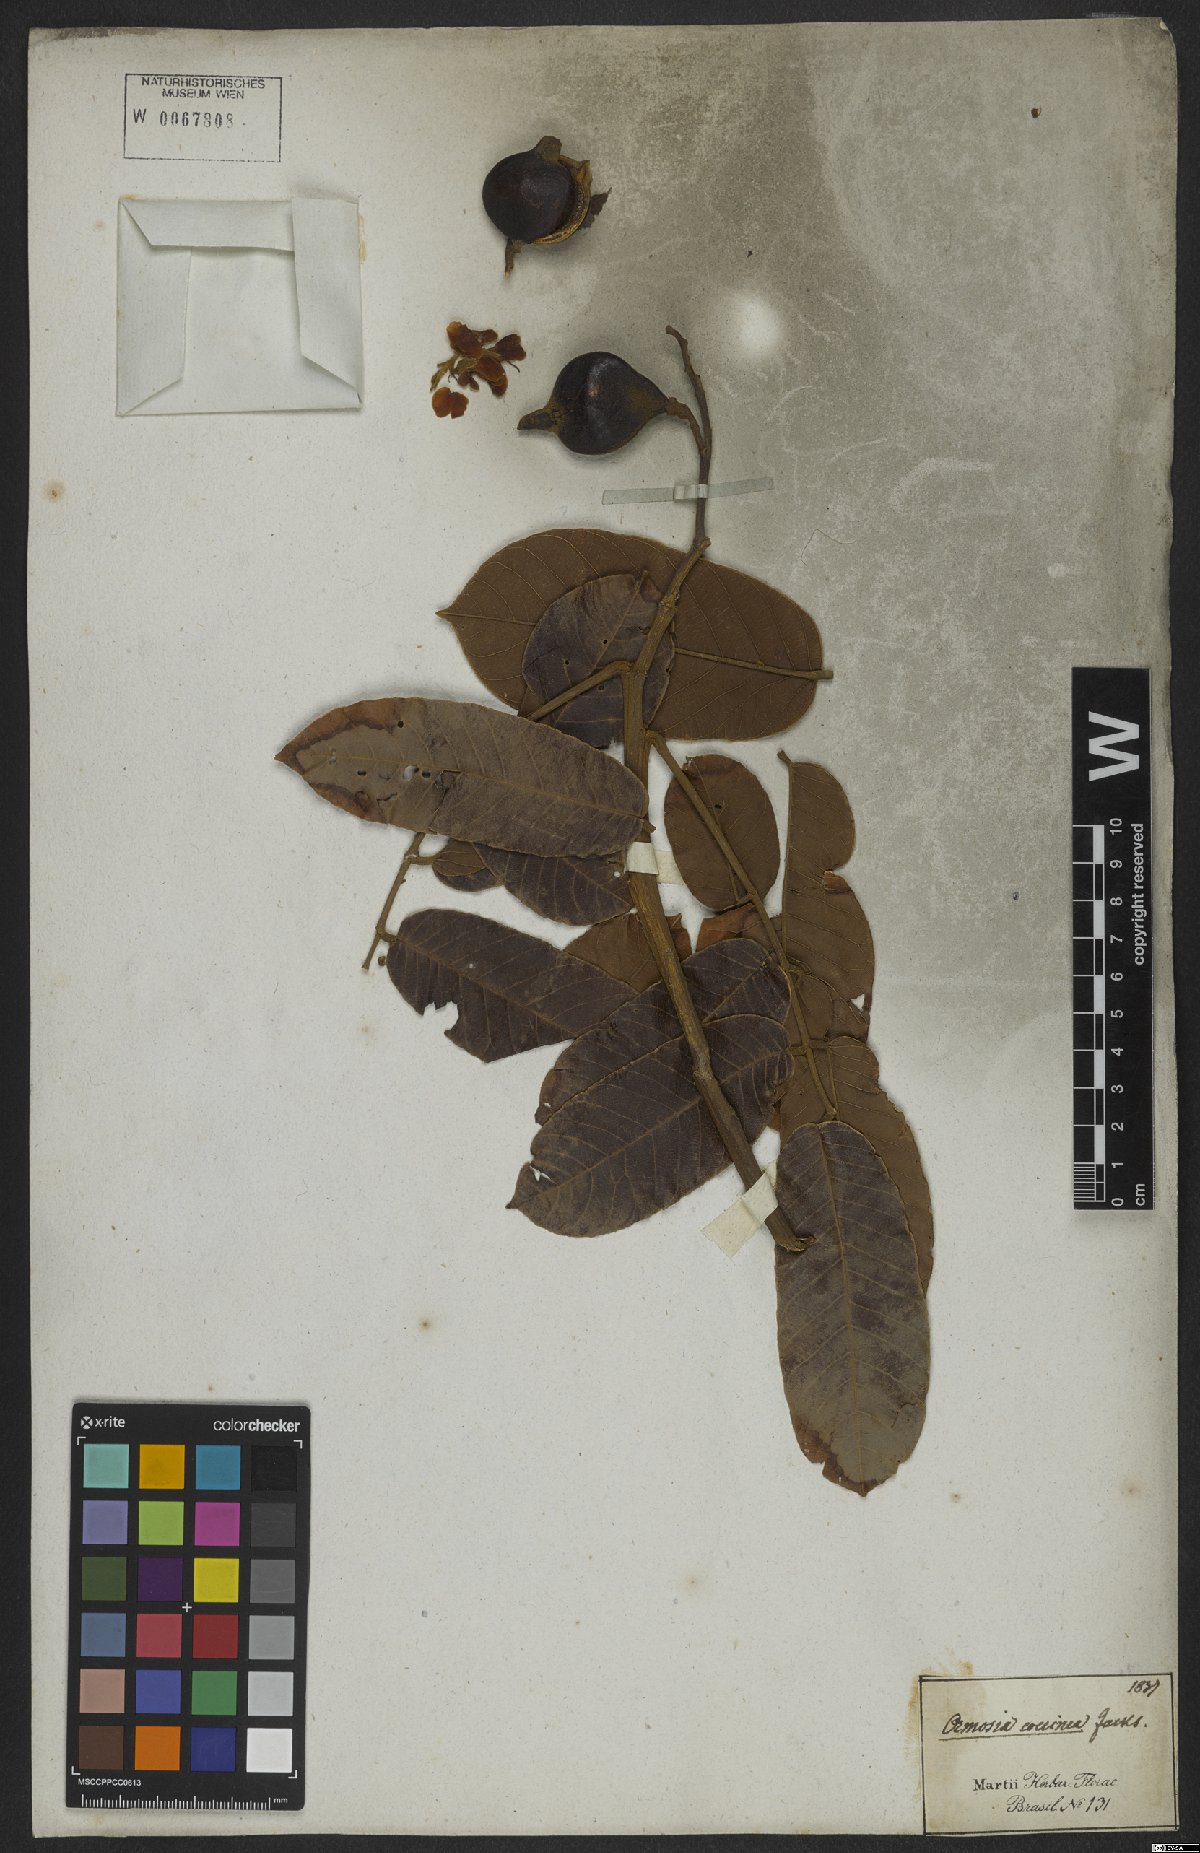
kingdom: Plantae
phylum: Tracheophyta
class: Magnoliopsida
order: Fabales
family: Fabaceae
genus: Ormosia
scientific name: Ormosia coccinea
